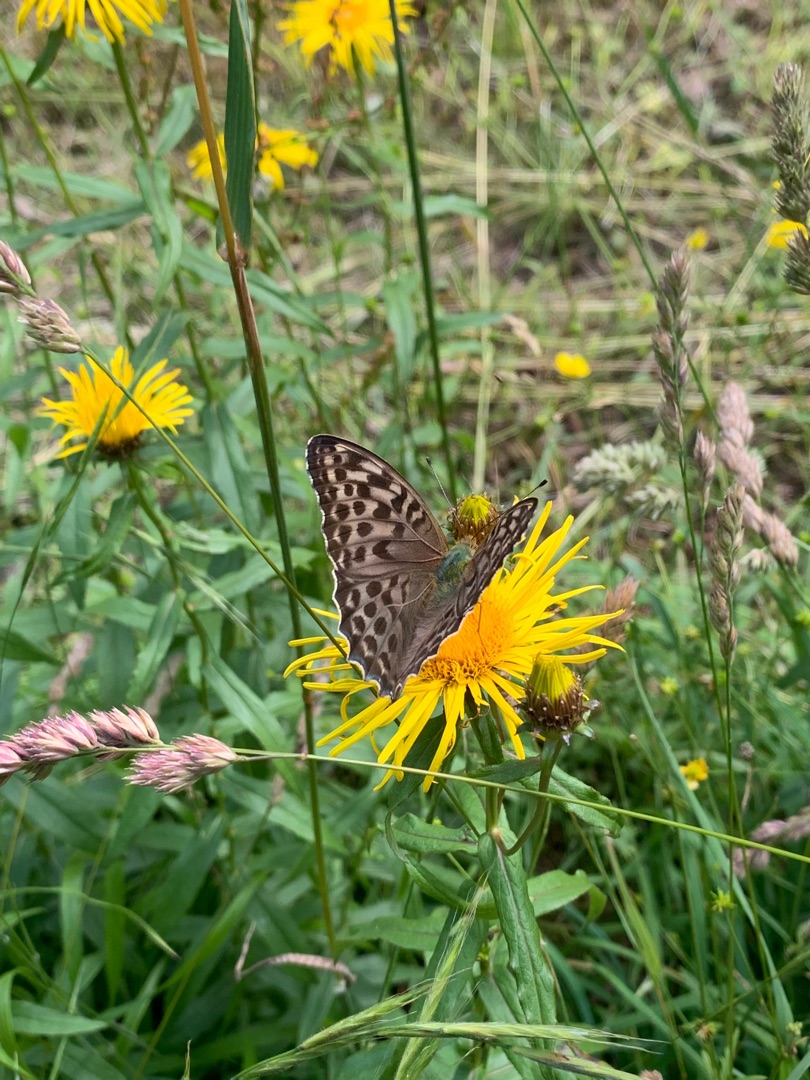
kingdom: Animalia
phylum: Arthropoda
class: Insecta
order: Lepidoptera
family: Nymphalidae
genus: Argynnis
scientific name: Argynnis paphia
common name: Kejserkåbe
